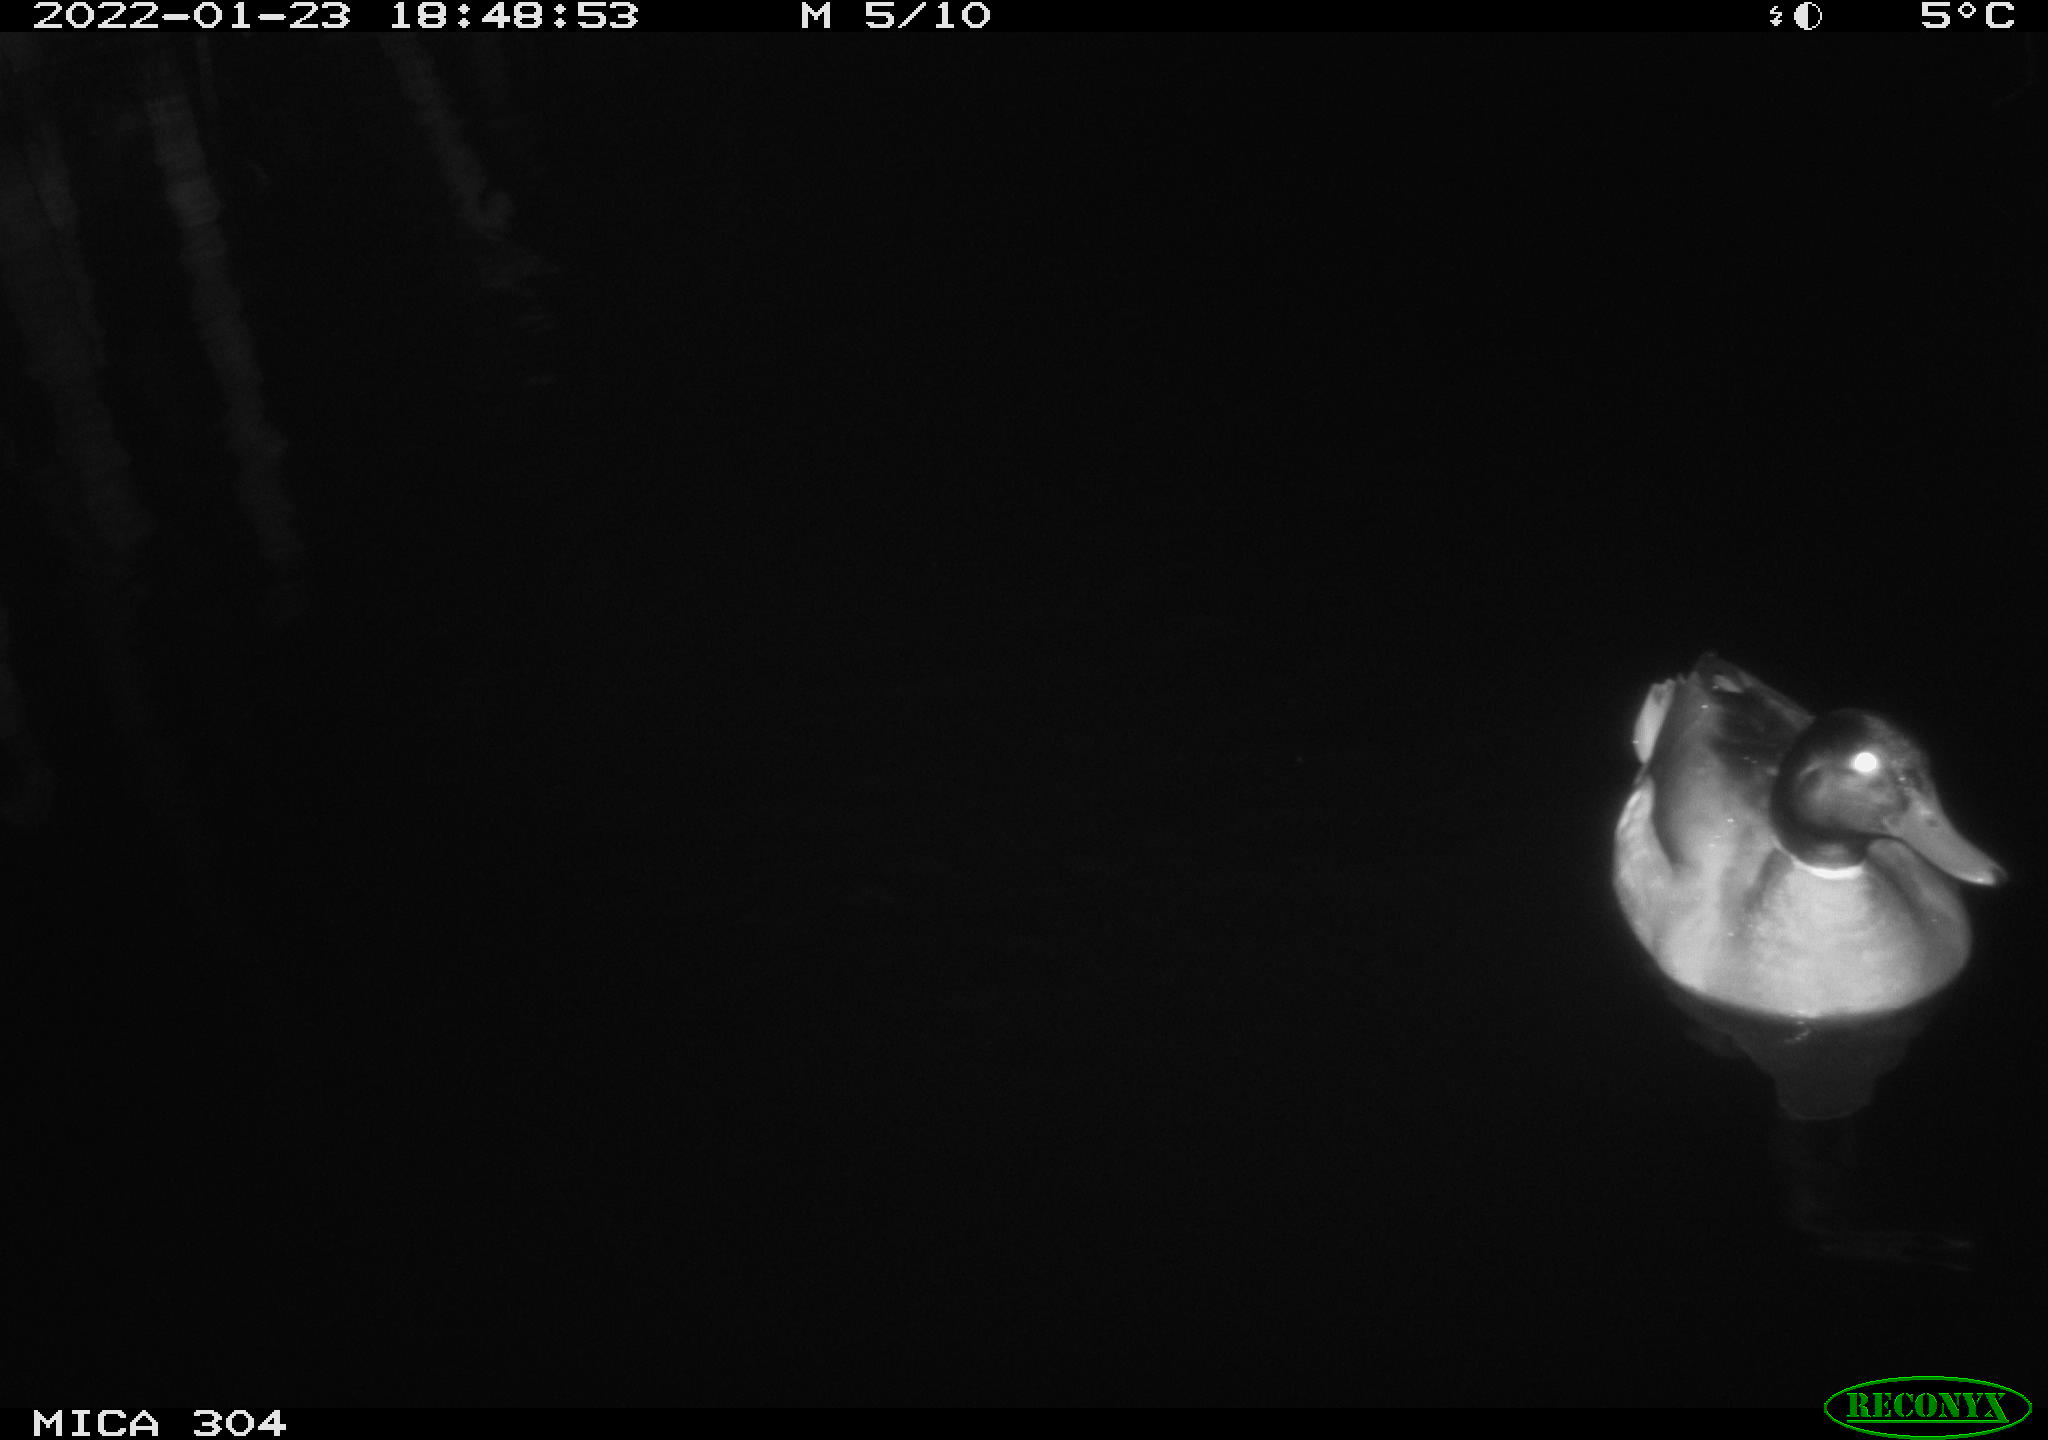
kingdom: Animalia
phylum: Chordata
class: Aves
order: Anseriformes
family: Anatidae
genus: Anas
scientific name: Anas
